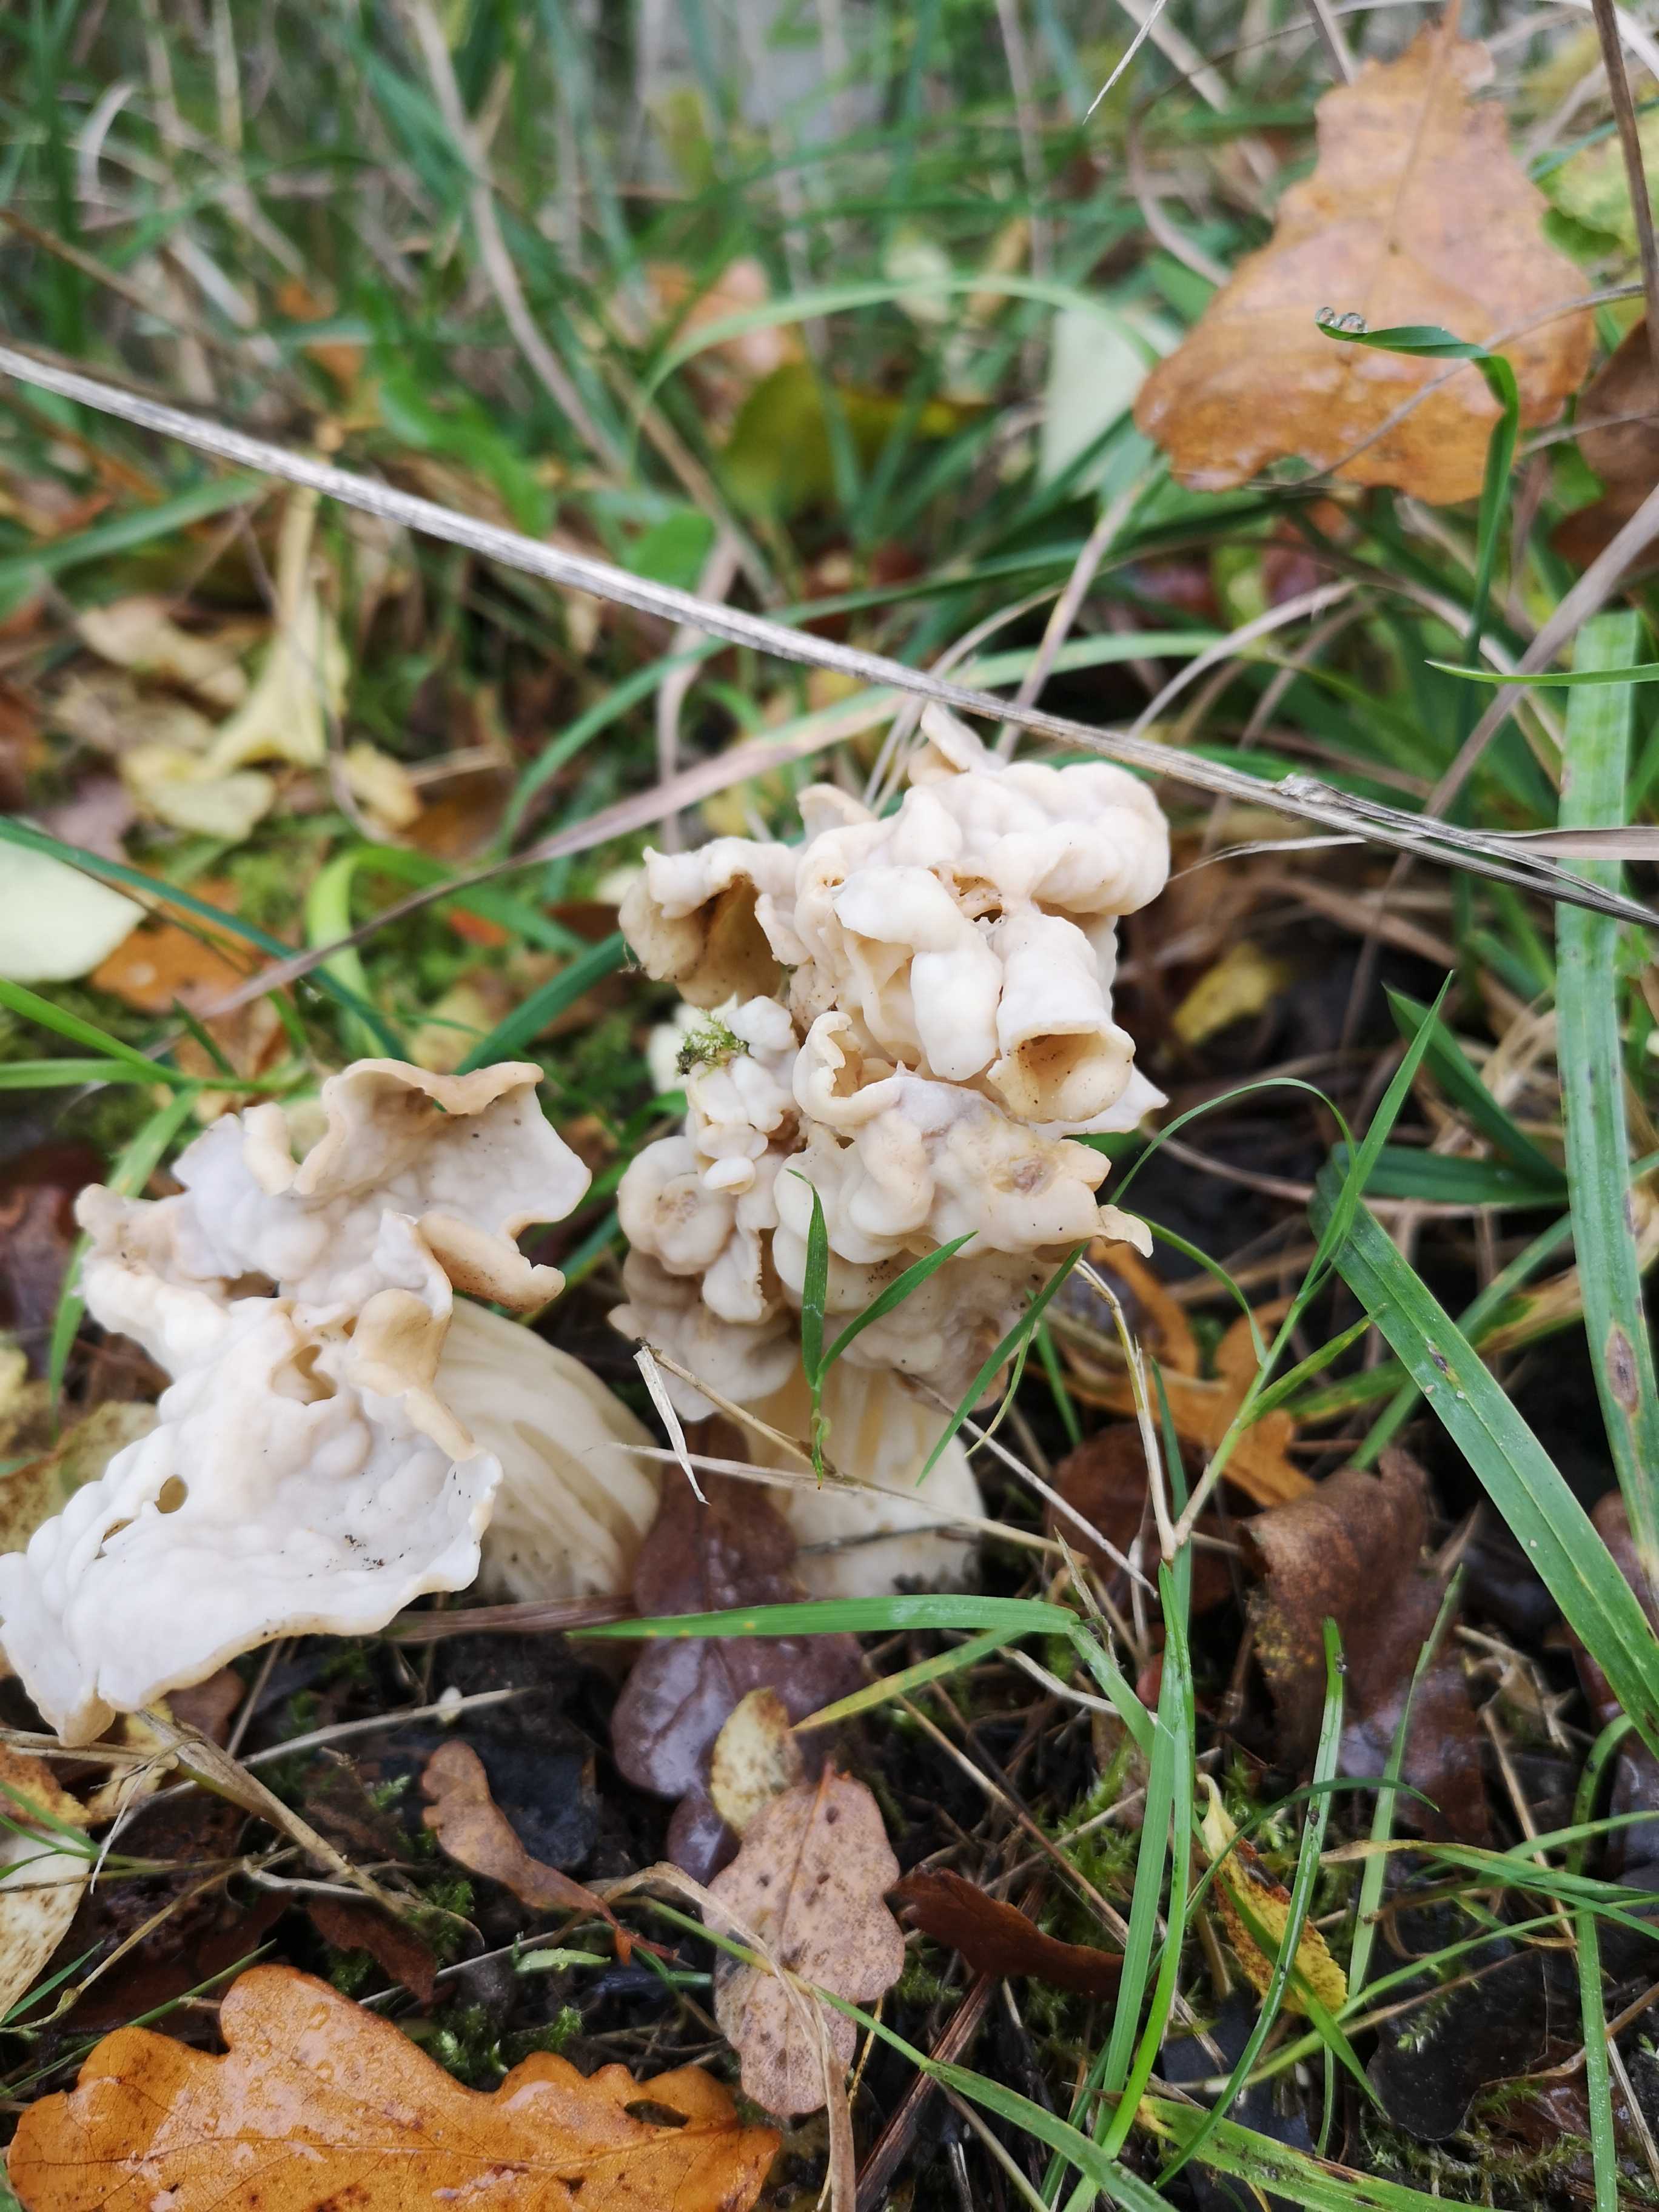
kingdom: Fungi
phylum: Ascomycota
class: Pezizomycetes
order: Pezizales
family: Helvellaceae
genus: Helvella
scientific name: Helvella crispa
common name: kruset foldhat
